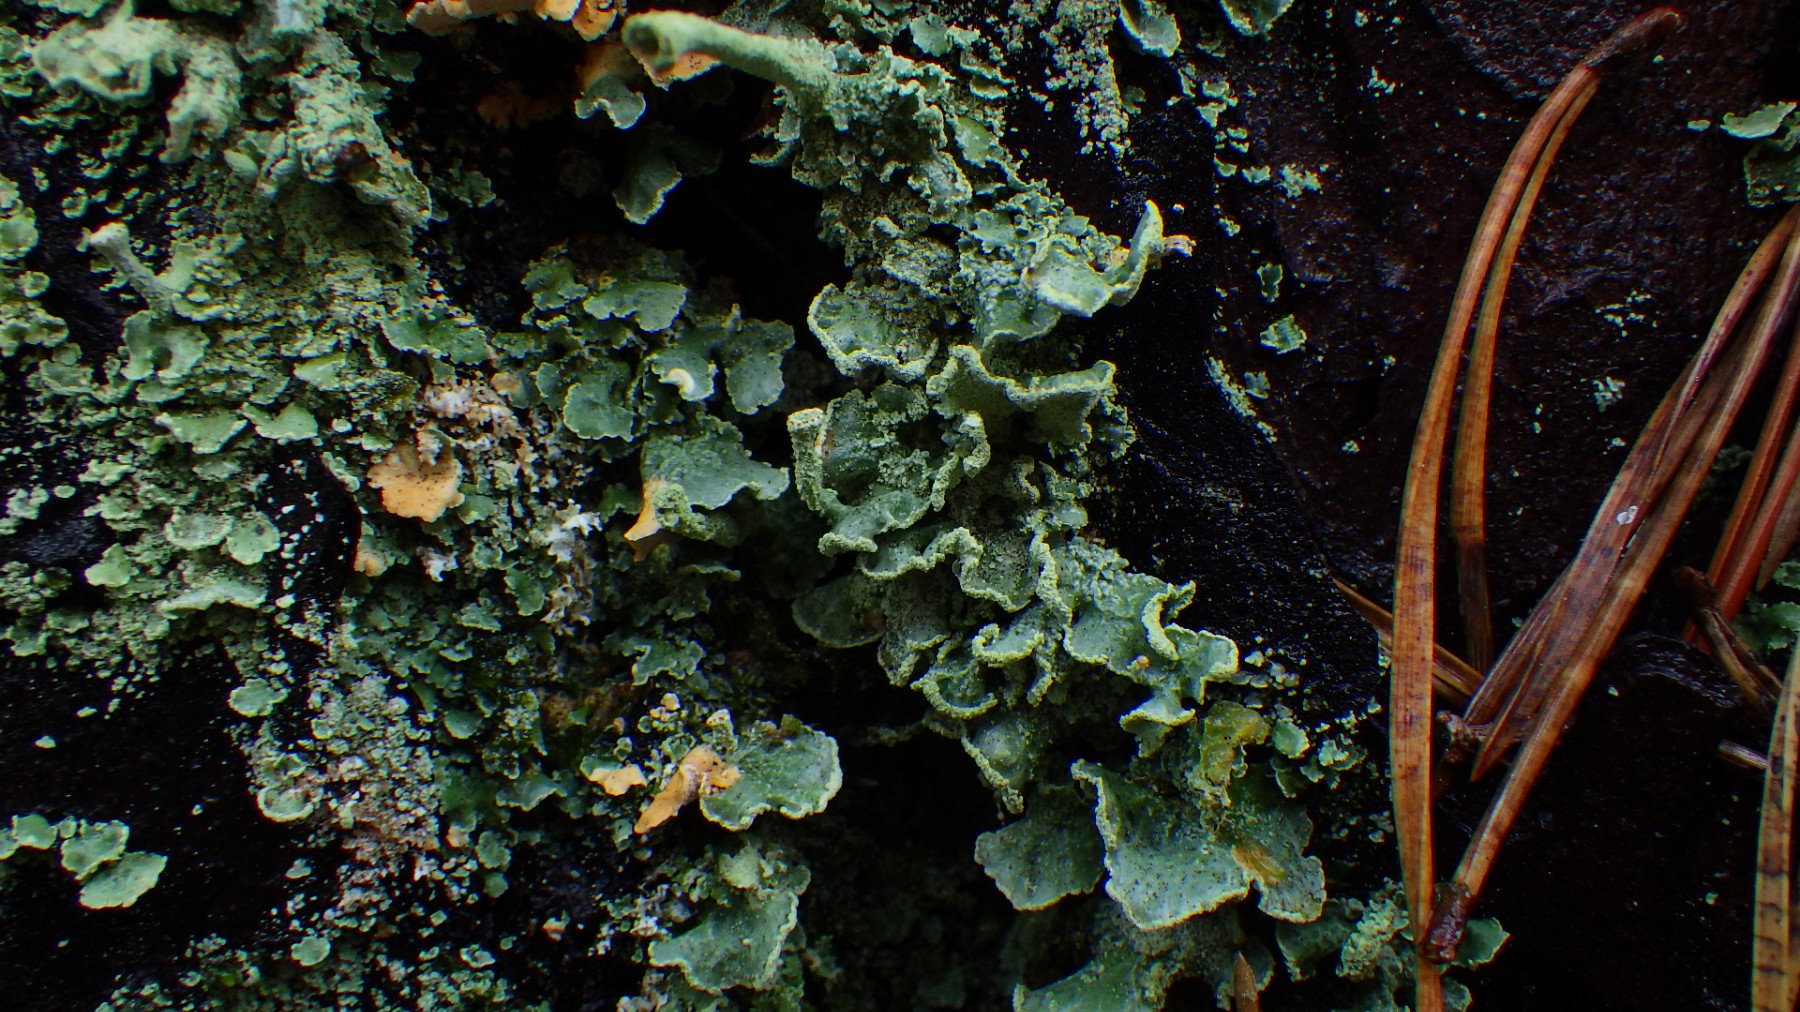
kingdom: Fungi
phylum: Ascomycota
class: Lecanoromycetes
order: Lecanorales
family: Cladoniaceae
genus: Cladonia
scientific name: Cladonia digitata
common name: finger-bægerlav
